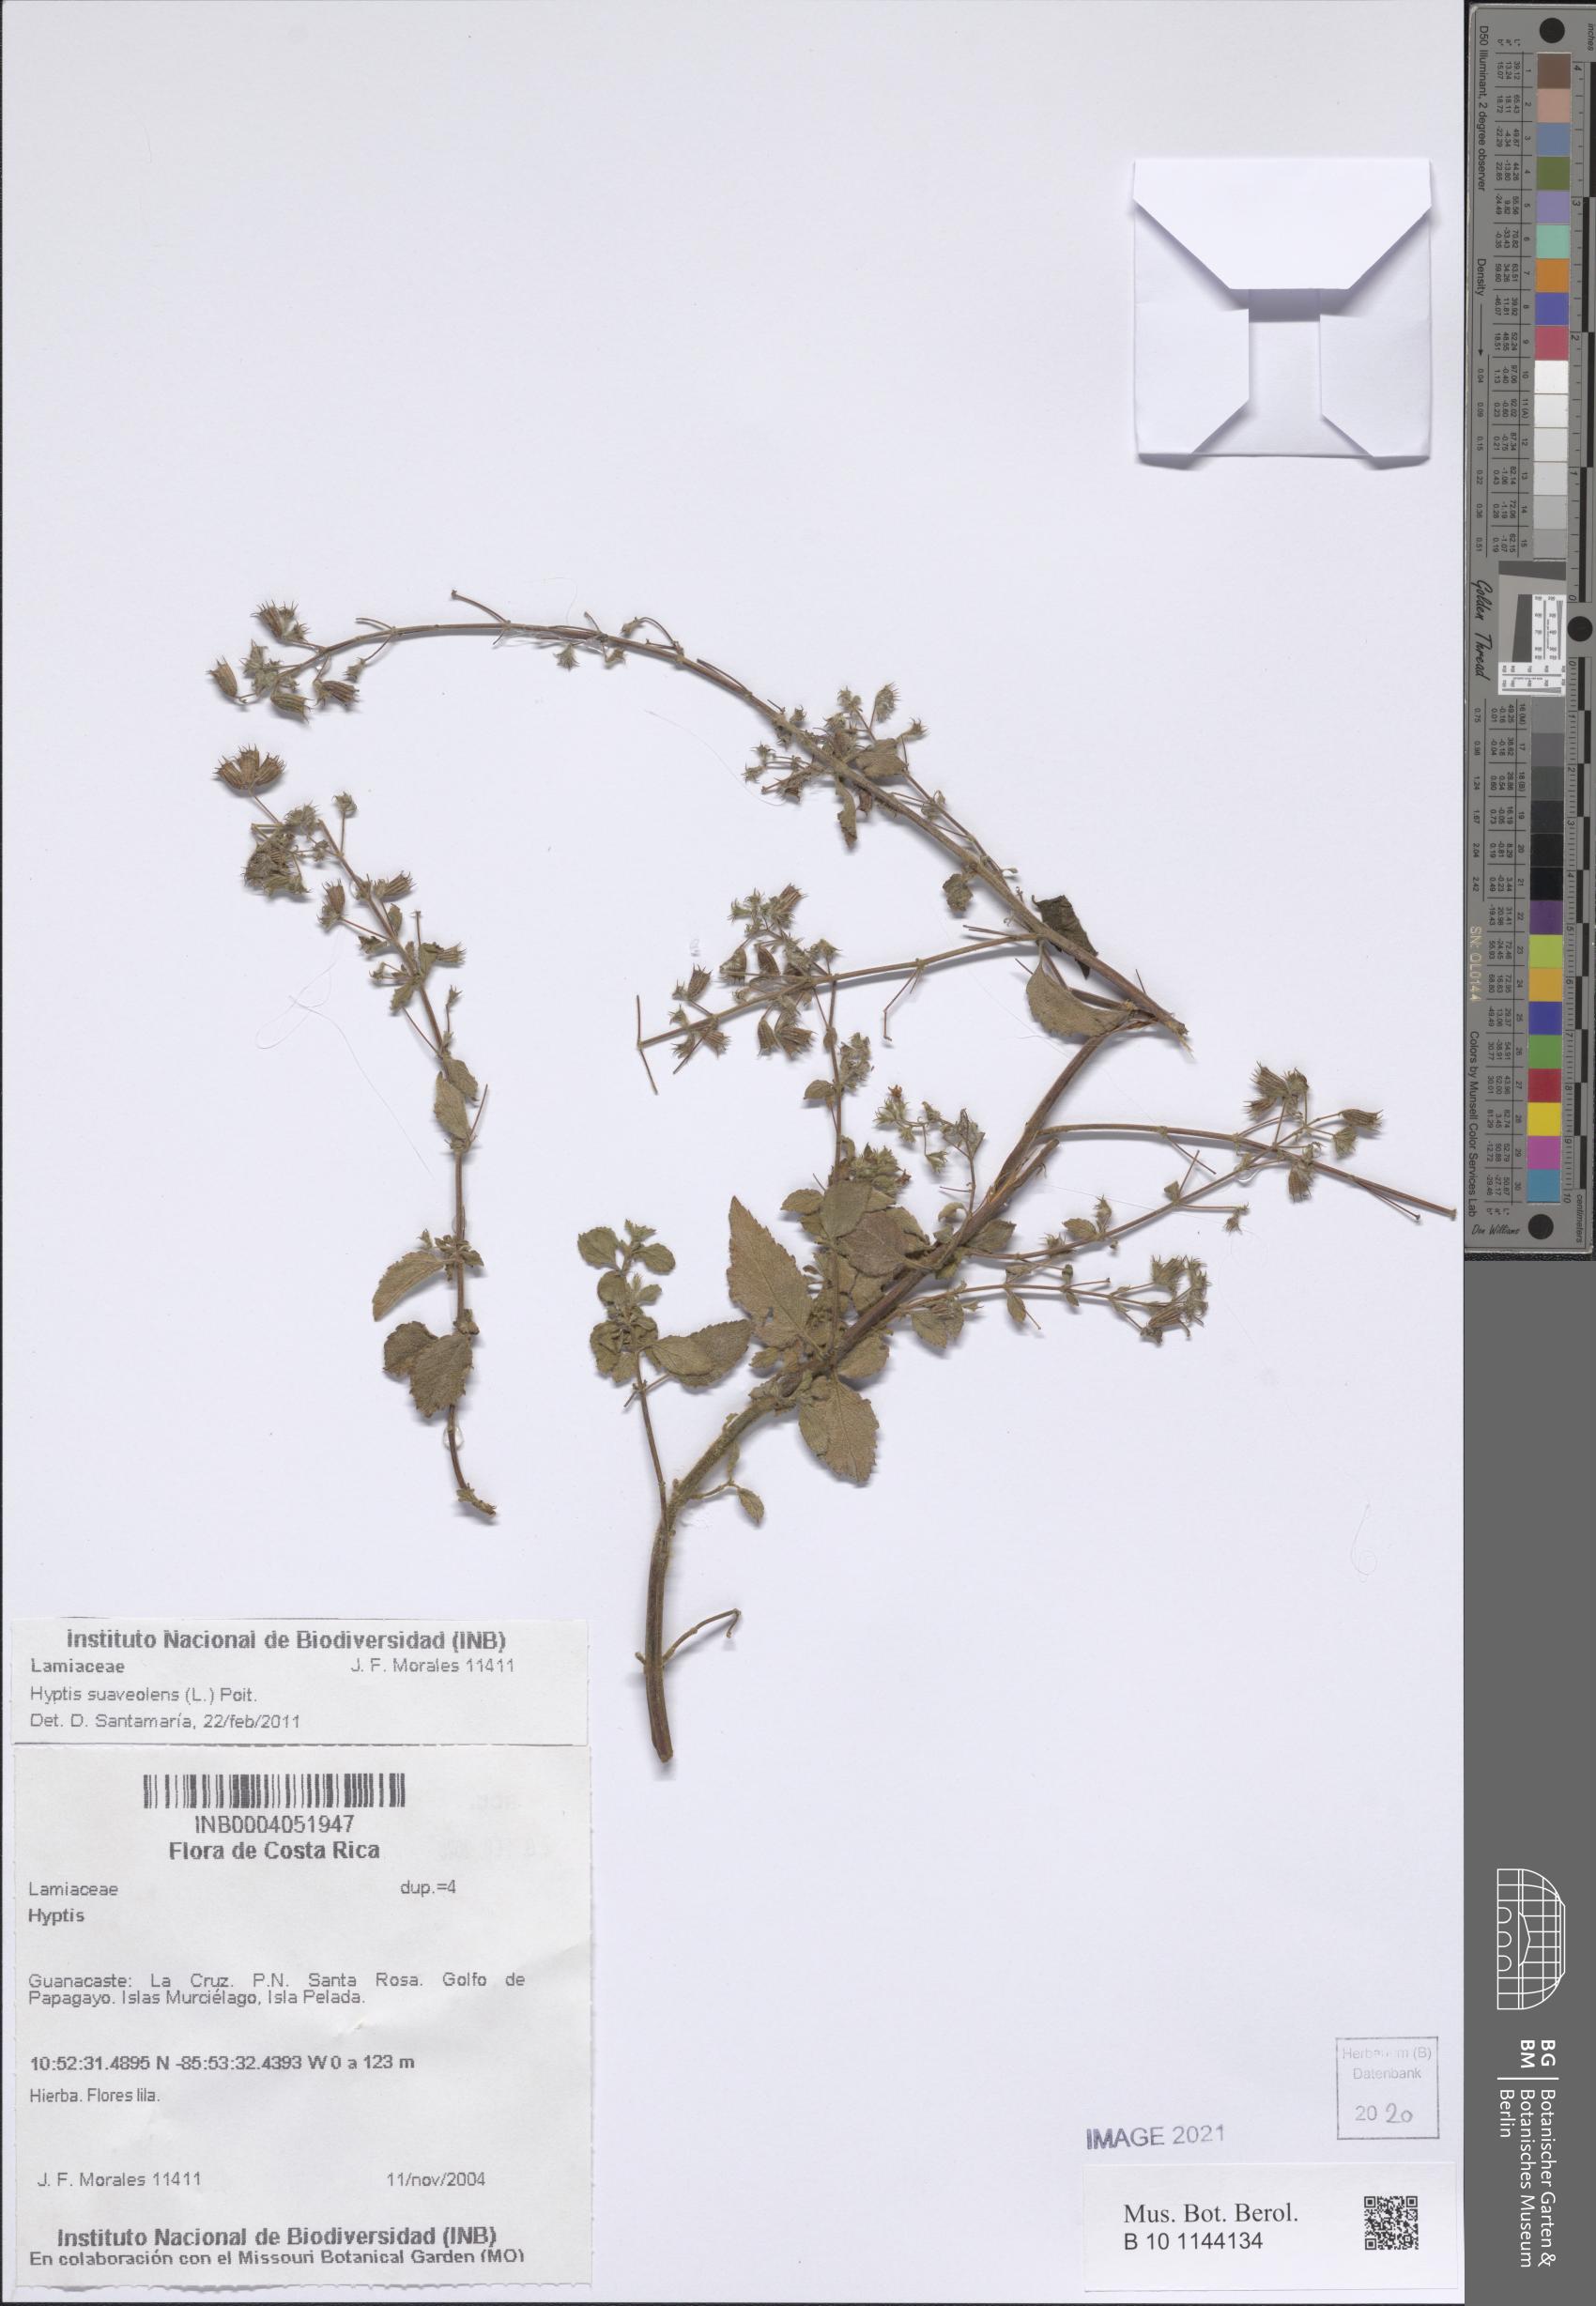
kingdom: Plantae
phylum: Tracheophyta
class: Magnoliopsida
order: Lamiales
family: Lamiaceae
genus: Mesosphaerum
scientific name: Mesosphaerum suaveolens
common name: Pignut
